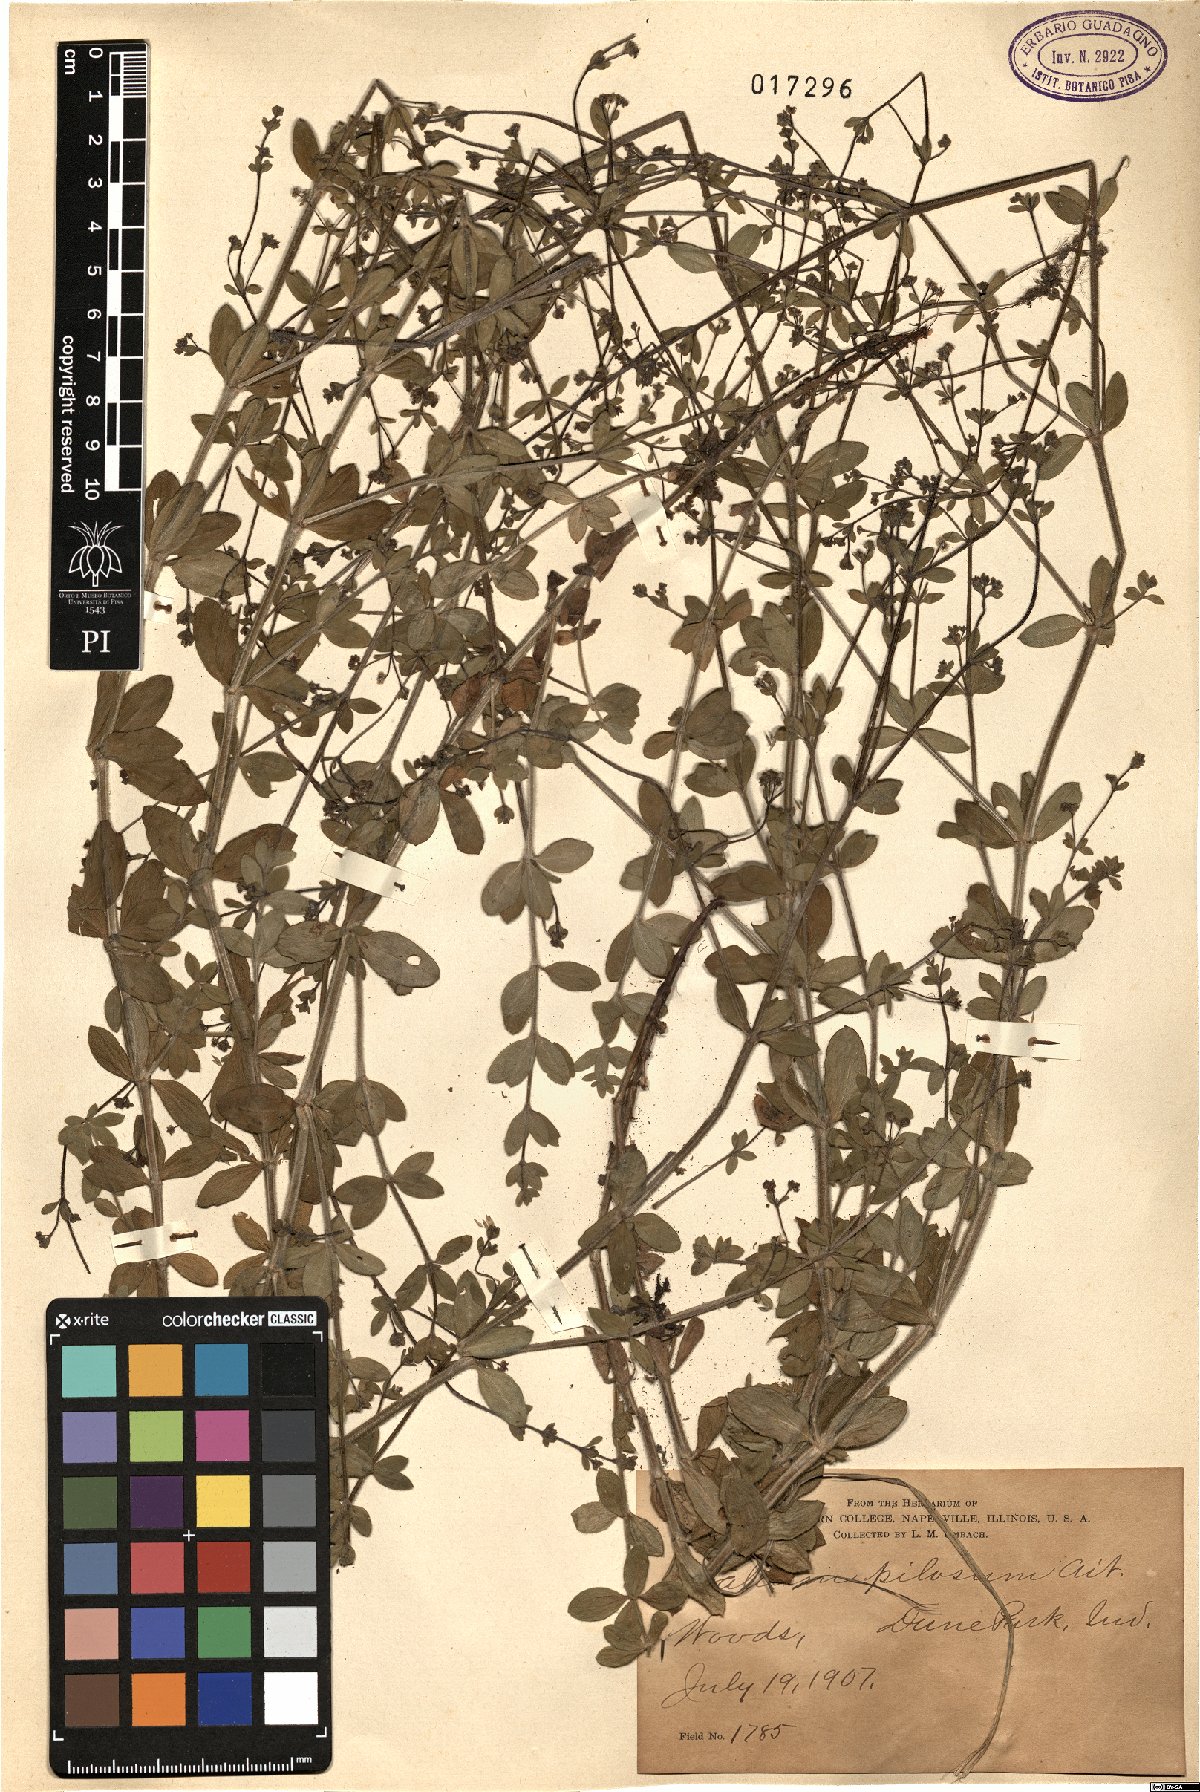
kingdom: Plantae
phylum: Tracheophyta
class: Magnoliopsida
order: Gentianales
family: Rubiaceae
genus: Galium
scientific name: Galium pilosum
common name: Hairy bedstraw
